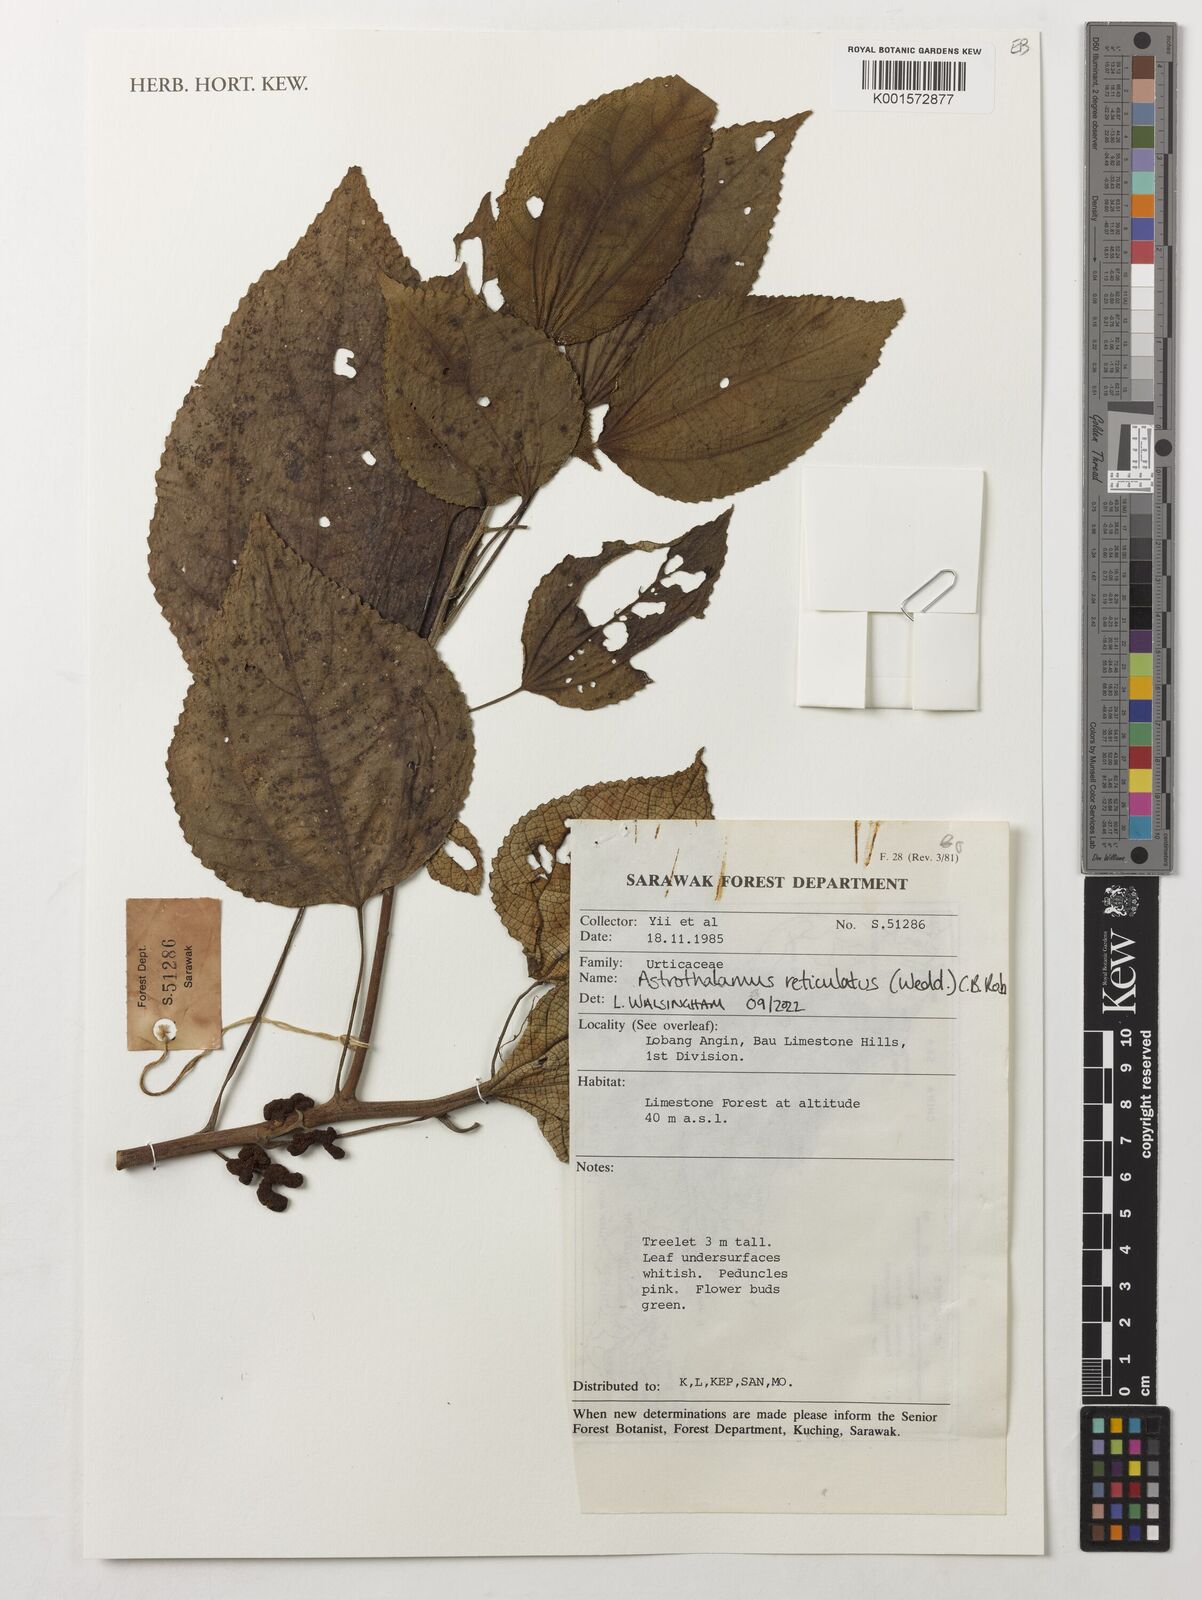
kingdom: Plantae
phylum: Tracheophyta
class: Magnoliopsida
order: Rosales
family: Urticaceae
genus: Astrothalamus
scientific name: Astrothalamus reticulatus
